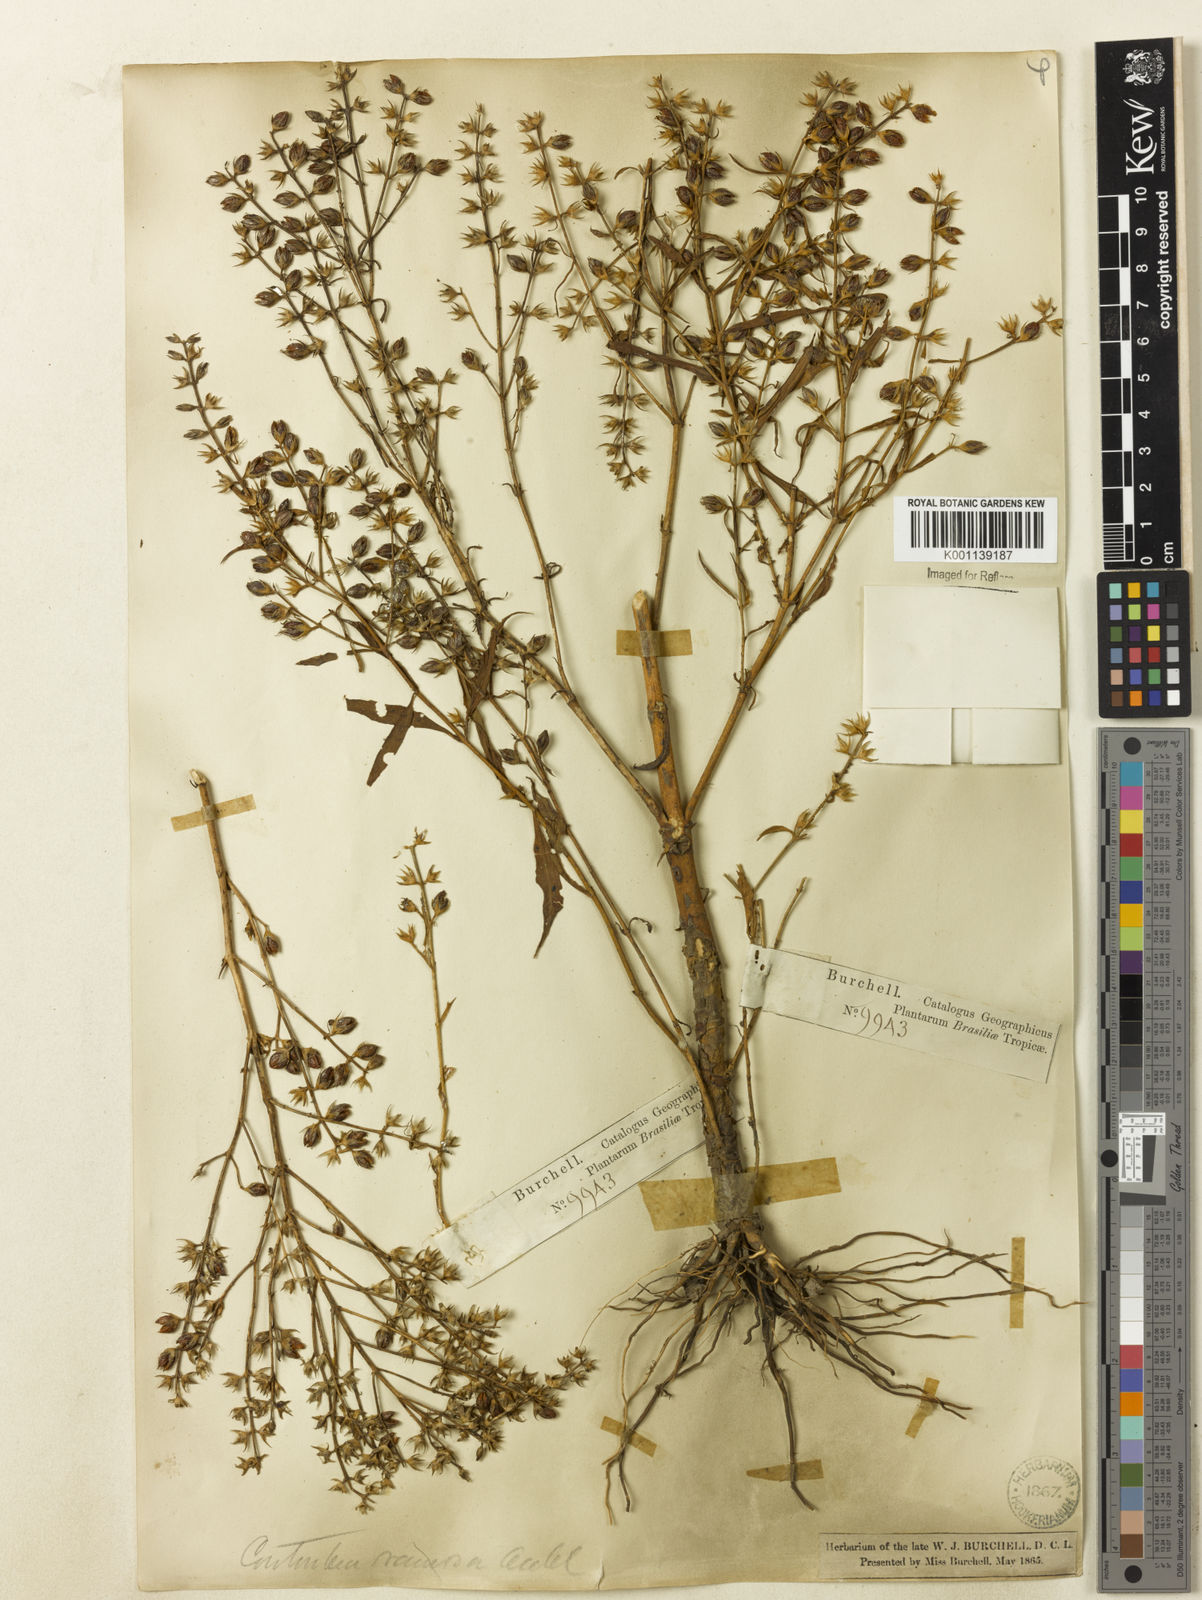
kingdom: Plantae
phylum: Tracheophyta
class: Magnoliopsida
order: Gentianales
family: Gentianaceae
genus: Coutoubea
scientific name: Coutoubea ramosa
